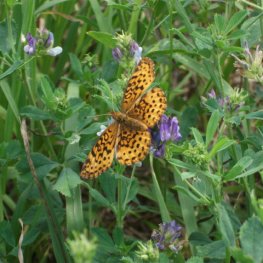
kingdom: Animalia
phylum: Arthropoda
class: Insecta
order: Lepidoptera
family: Nymphalidae
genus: Boloria
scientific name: Boloria
